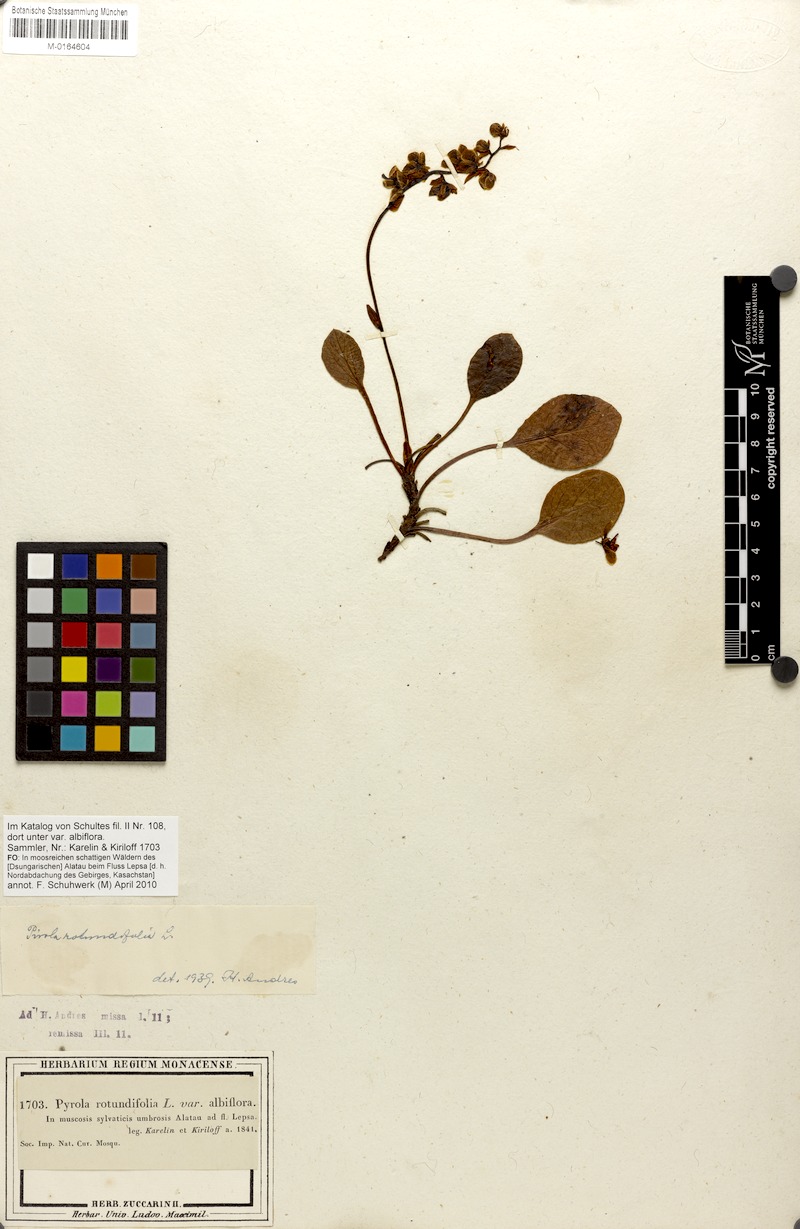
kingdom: Plantae
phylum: Tracheophyta
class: Magnoliopsida
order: Ericales
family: Ericaceae
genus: Pyrola
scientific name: Pyrola rotundifolia
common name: Round-leaved wintergreen
